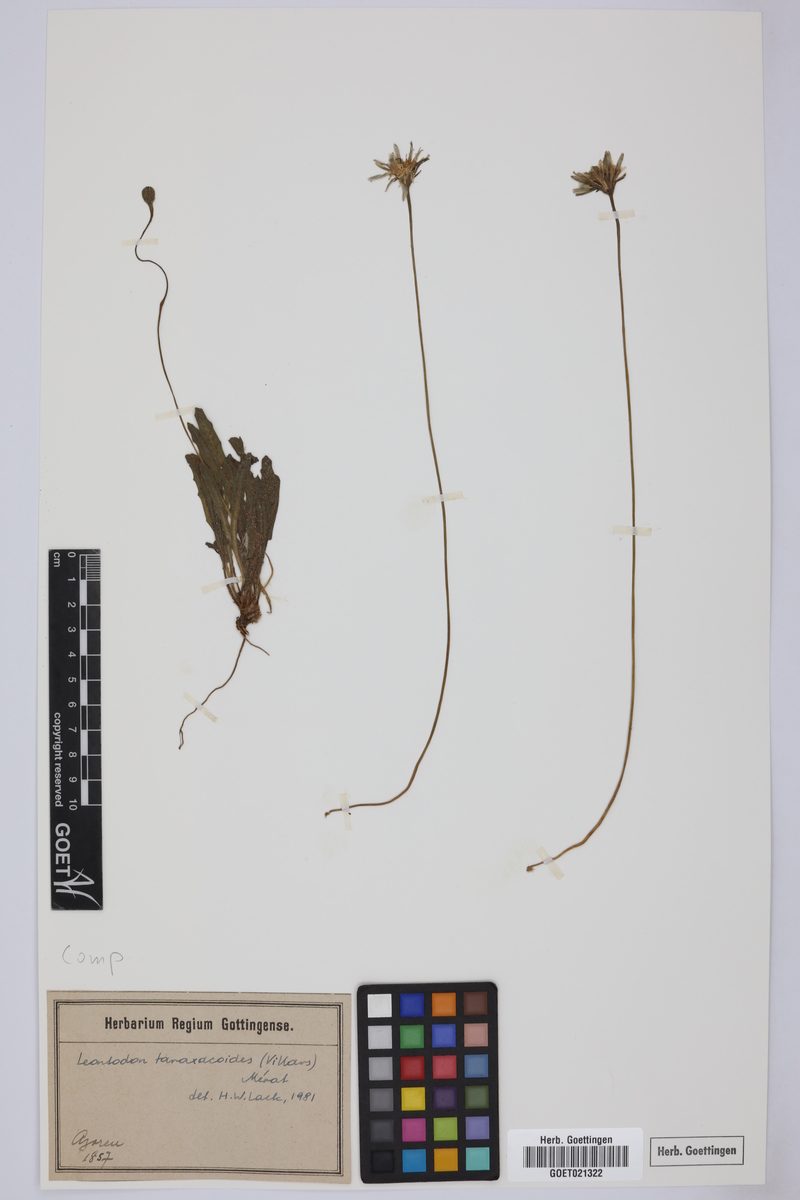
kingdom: Plantae
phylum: Tracheophyta
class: Magnoliopsida
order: Asterales
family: Asteraceae
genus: Thrincia
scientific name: Thrincia saxatilis
